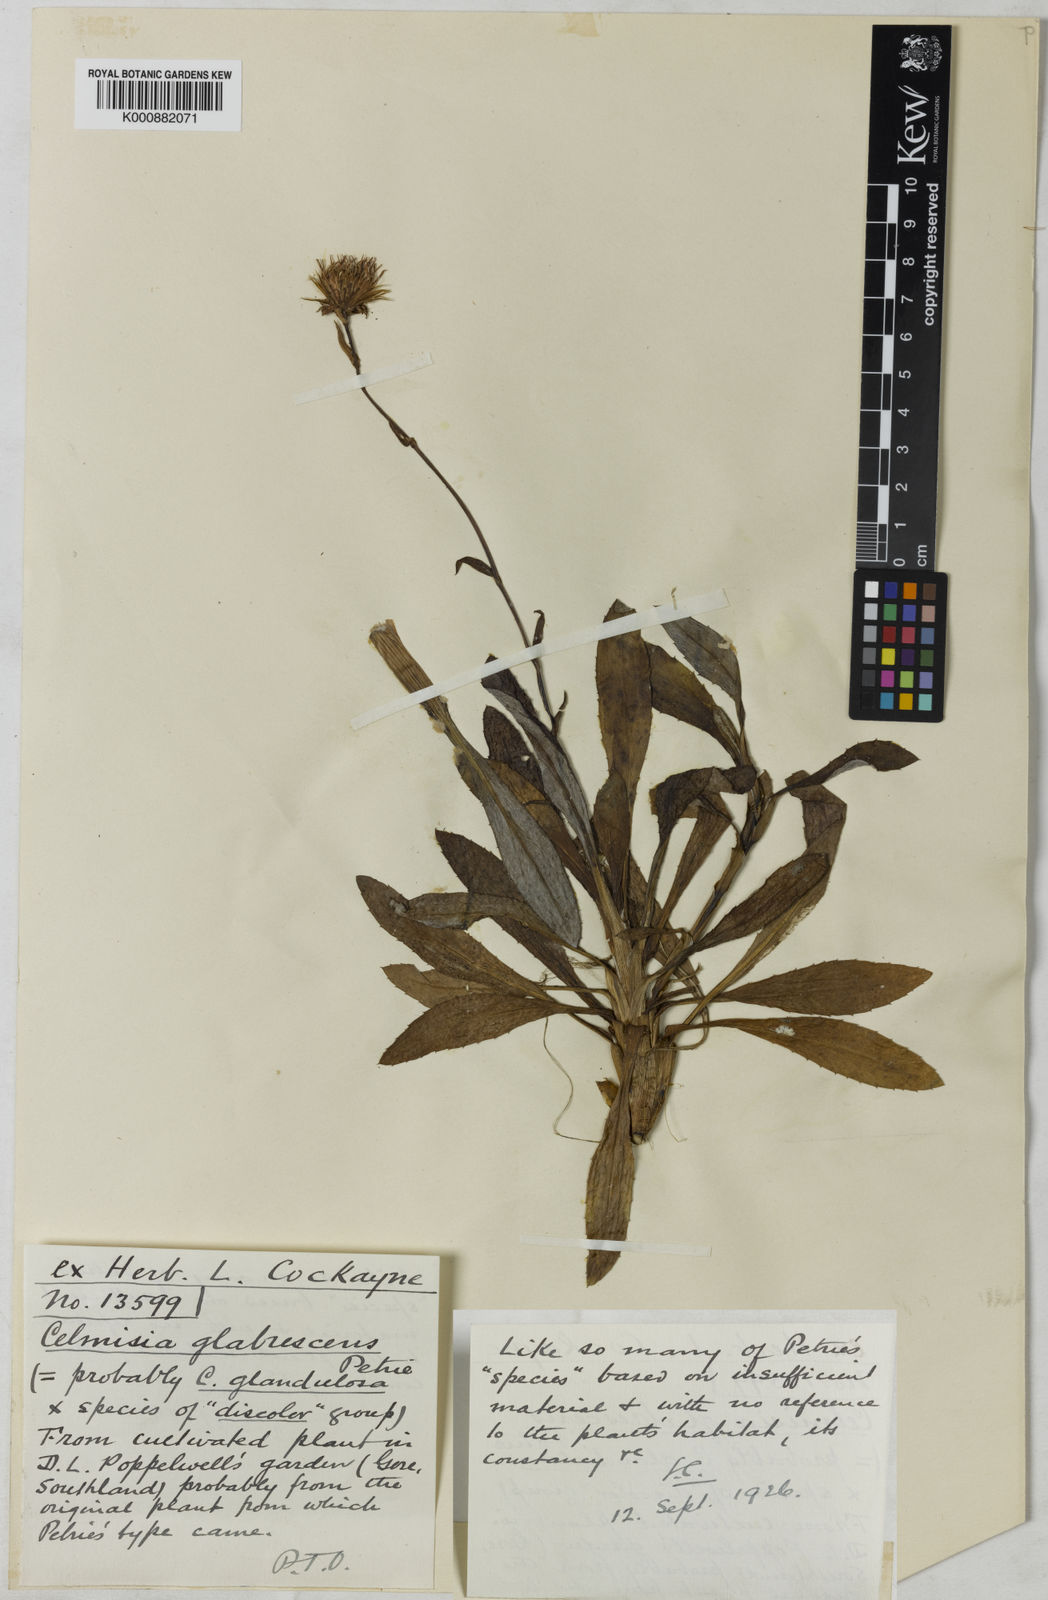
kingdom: Plantae
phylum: Tracheophyta
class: Magnoliopsida
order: Asterales
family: Asteraceae
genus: Celmisia
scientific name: Celmisia glabrescens
